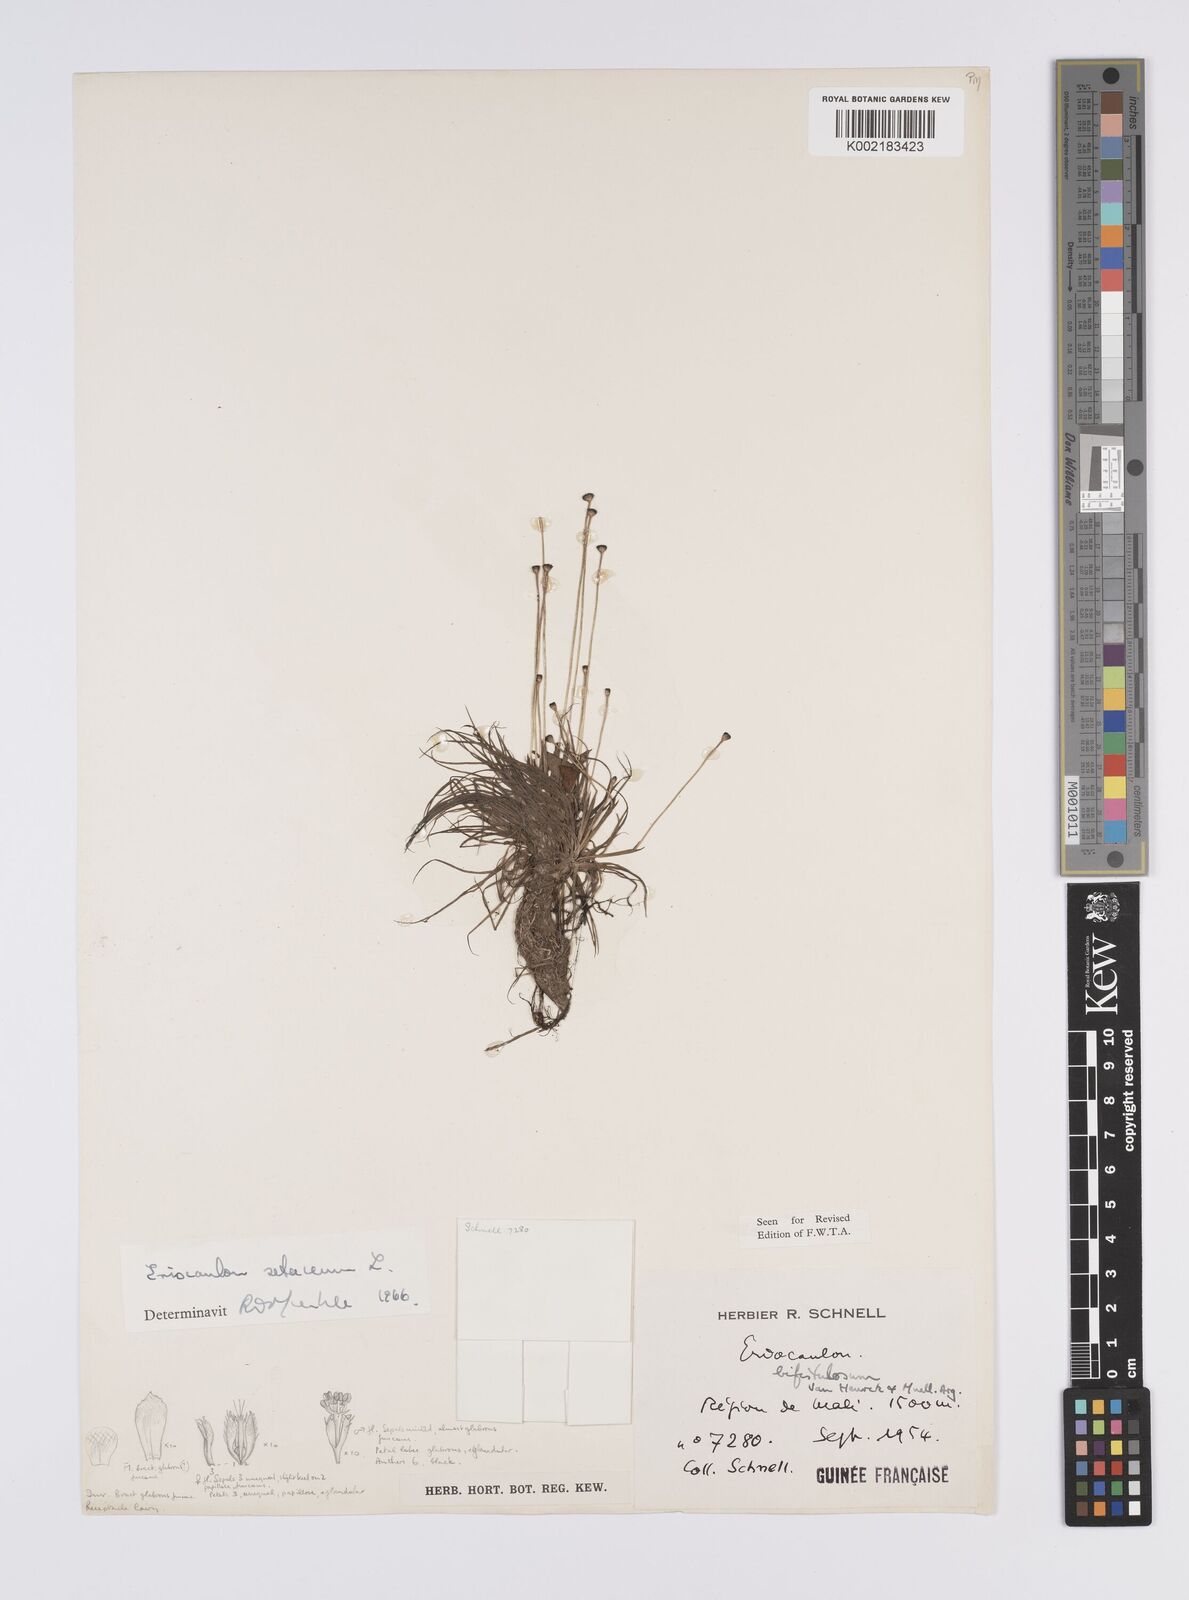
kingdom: Plantae
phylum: Tracheophyta
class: Liliopsida
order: Poales
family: Eriocaulaceae
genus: Eriocaulon
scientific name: Eriocaulon setaceum
